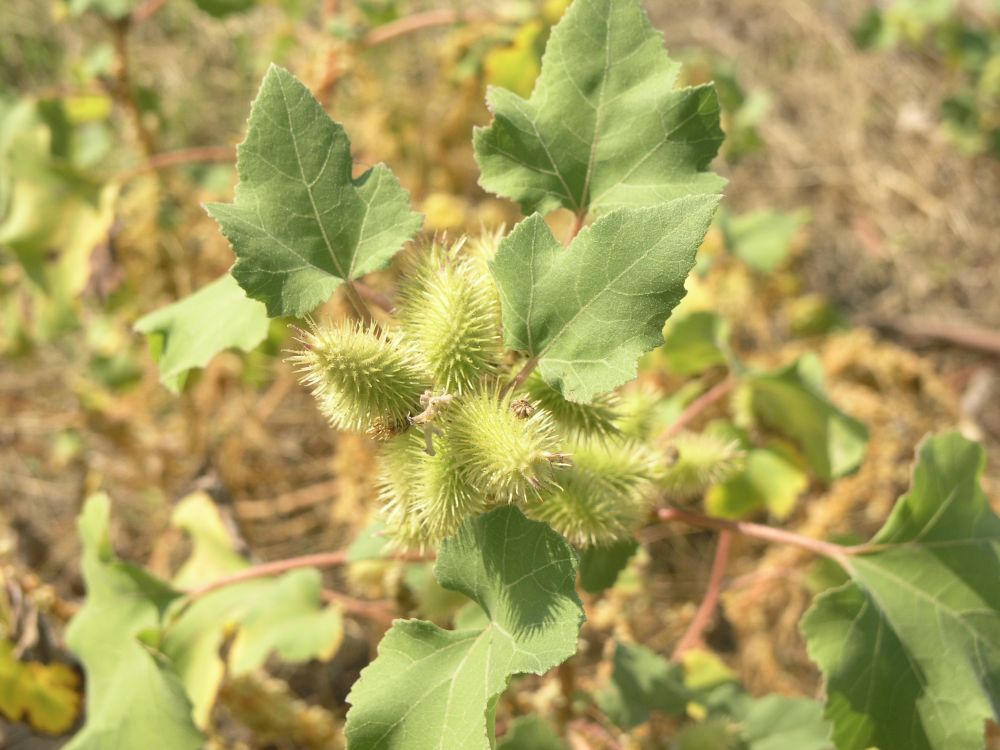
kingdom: Plantae
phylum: Tracheophyta
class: Magnoliopsida
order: Asterales
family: Asteraceae
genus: Xanthium
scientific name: Xanthium strumarium
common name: Rough cocklebur
